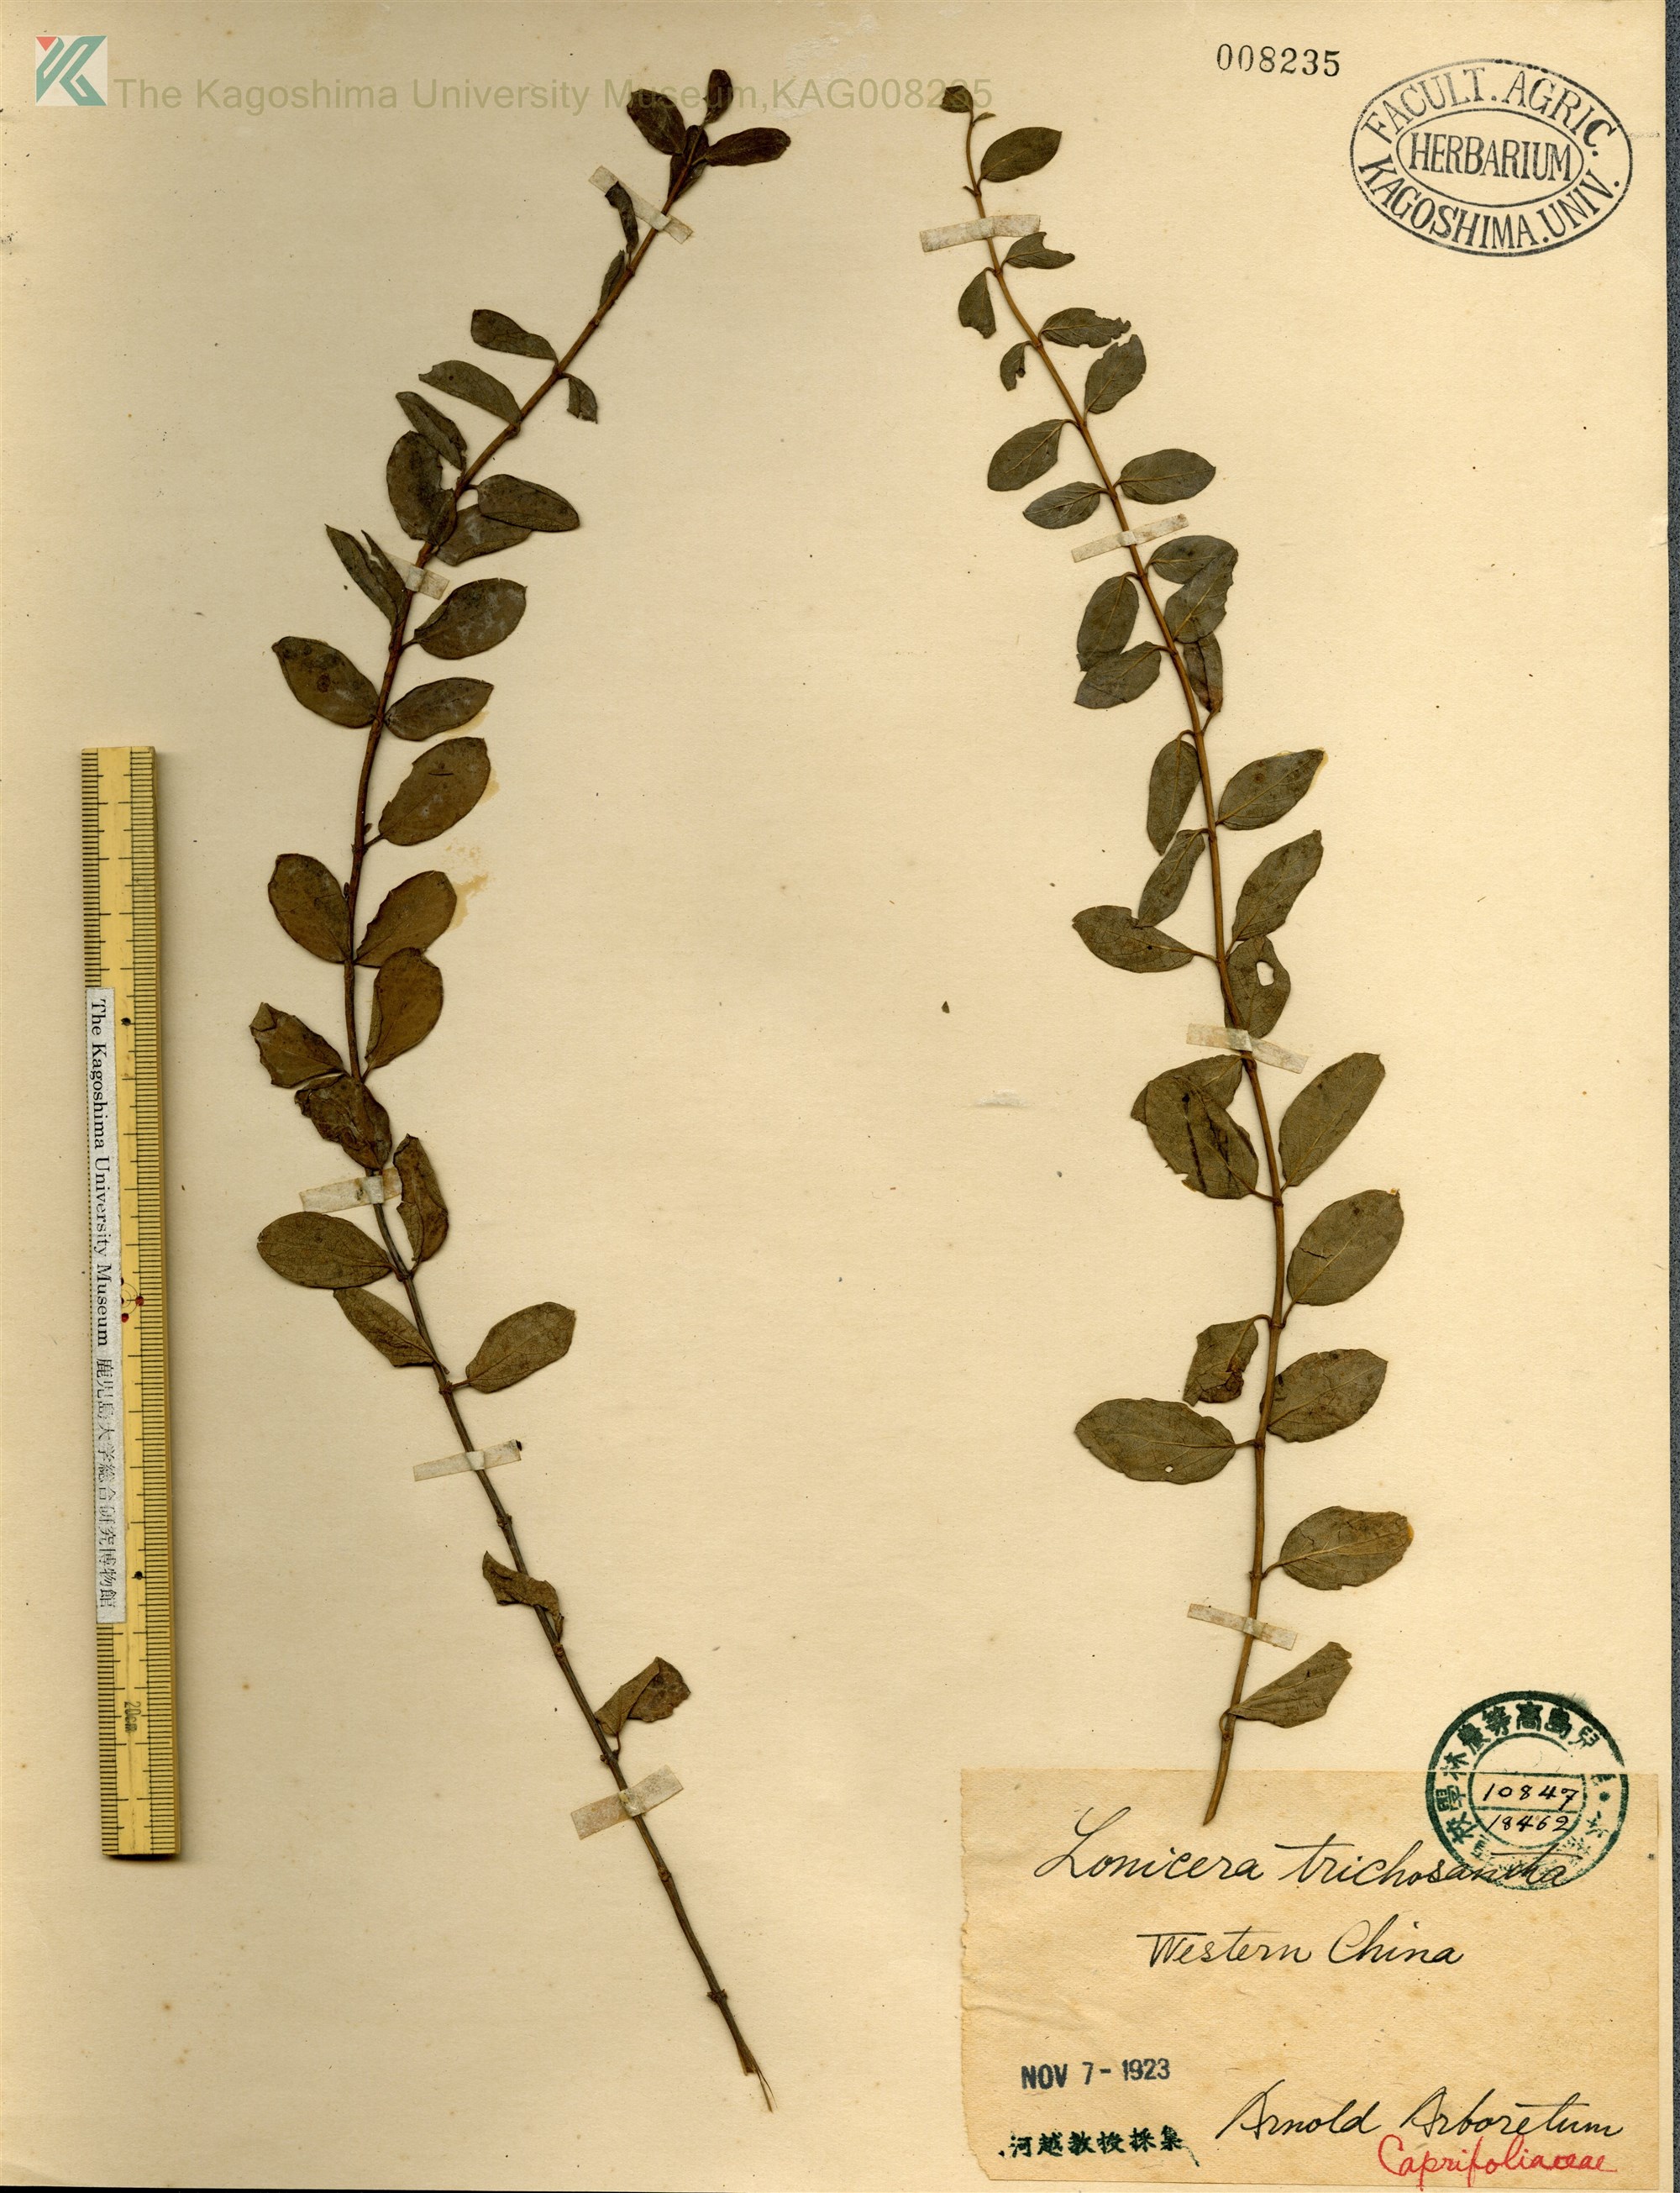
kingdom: Plantae
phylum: Tracheophyta
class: Magnoliopsida
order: Dipsacales
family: Caprifoliaceae
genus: Lonicera
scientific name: Lonicera trichosantha
